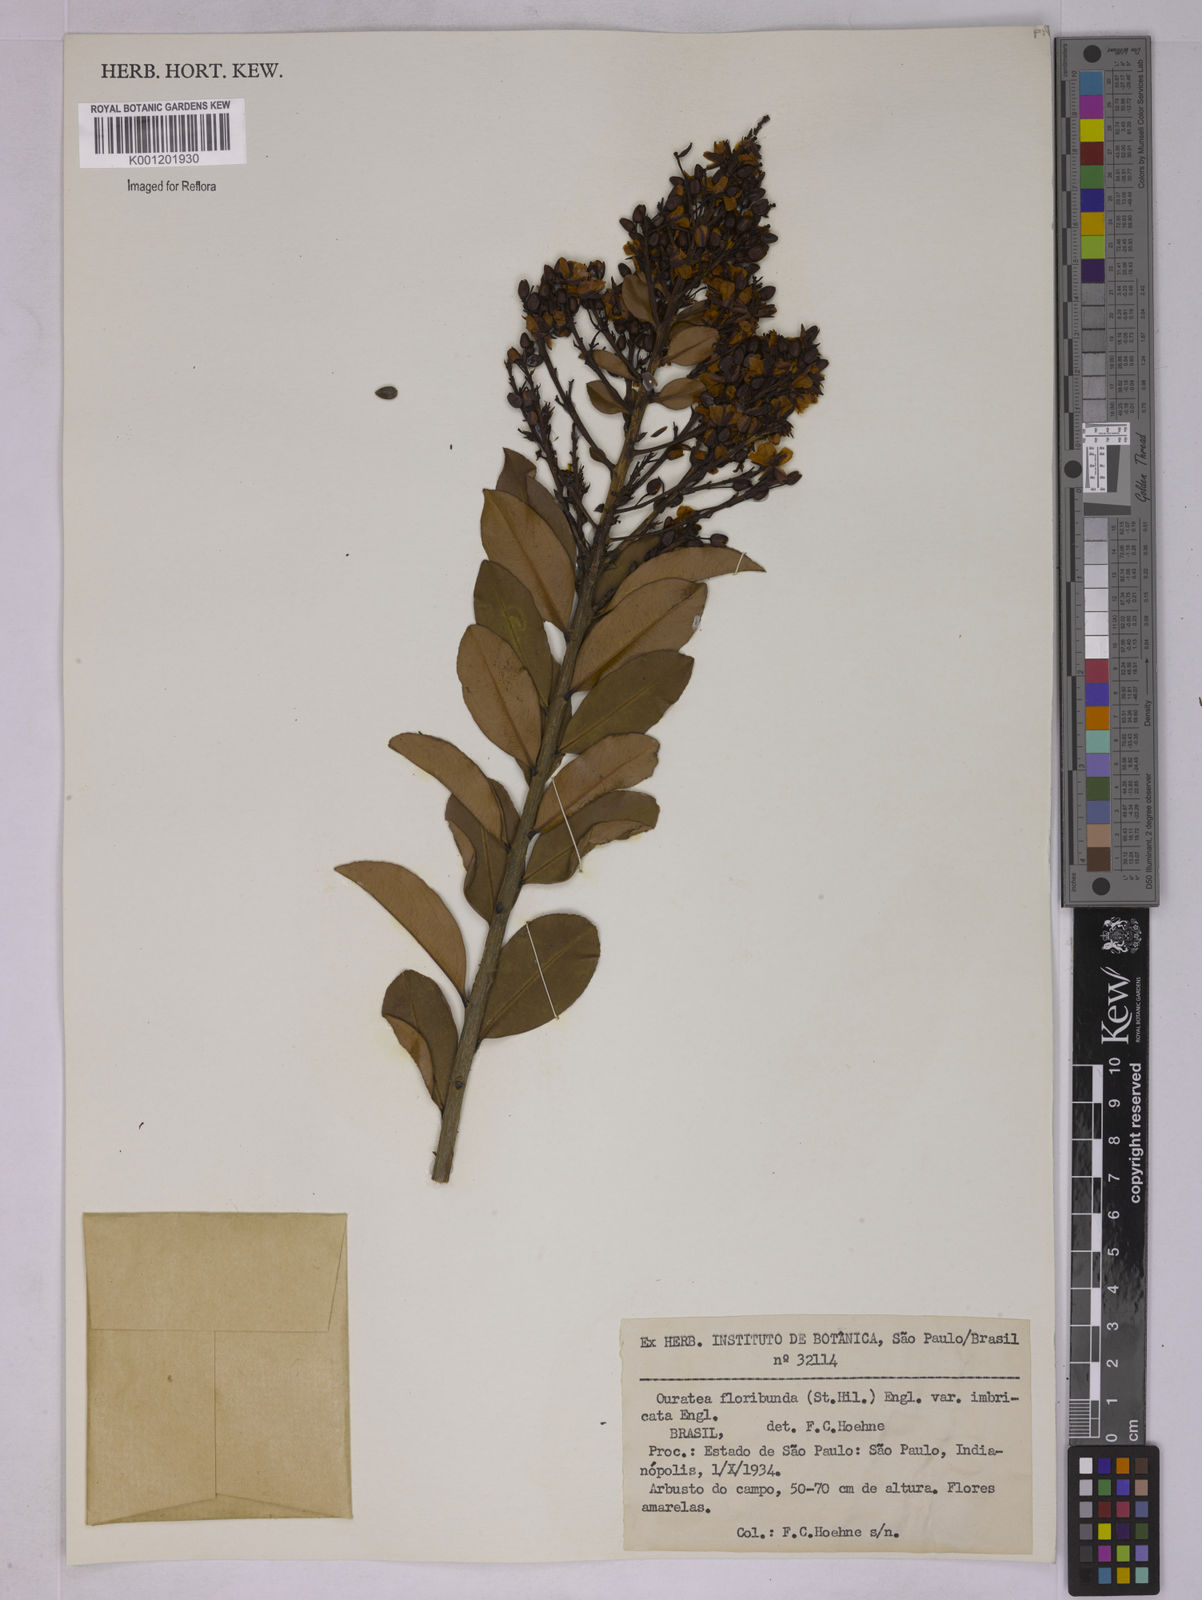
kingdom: Plantae
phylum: Tracheophyta
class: Magnoliopsida
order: Malpighiales
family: Ochnaceae
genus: Ouratea
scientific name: Ouratea floribunda
